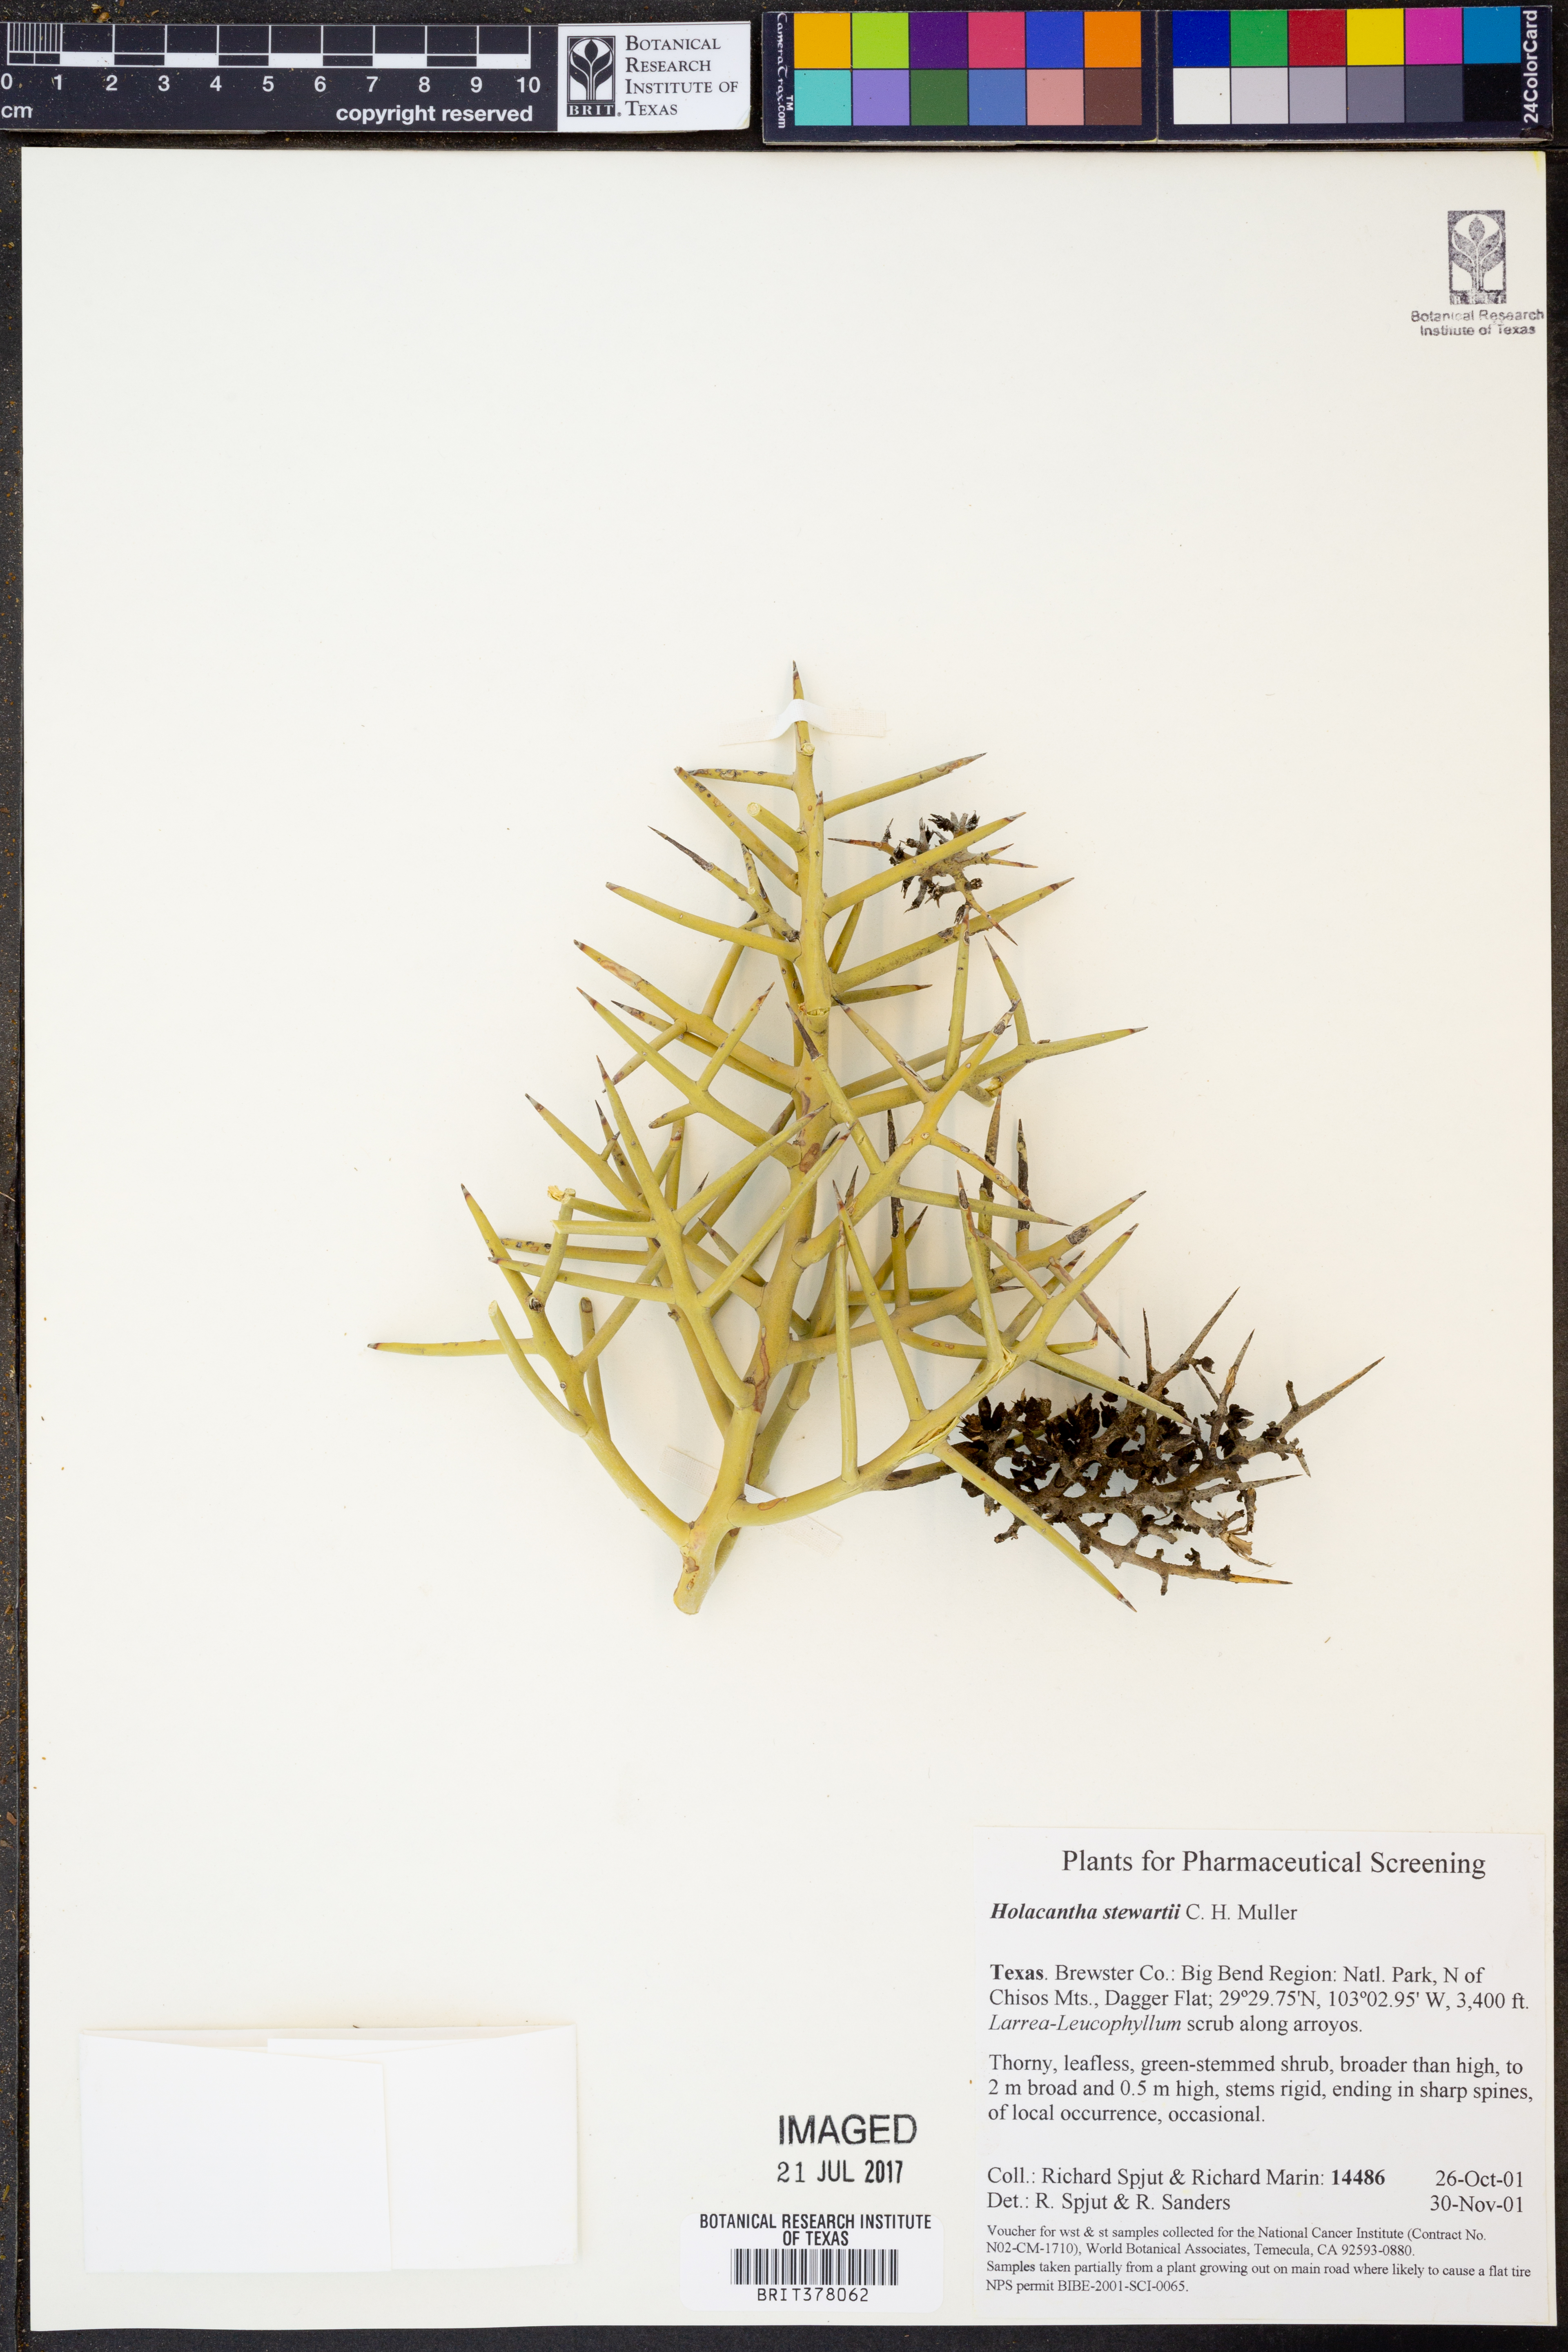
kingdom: Plantae
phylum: Tracheophyta
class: Magnoliopsida
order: Sapindales
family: Simaroubaceae
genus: Holacantha
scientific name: Holacantha stewartii
